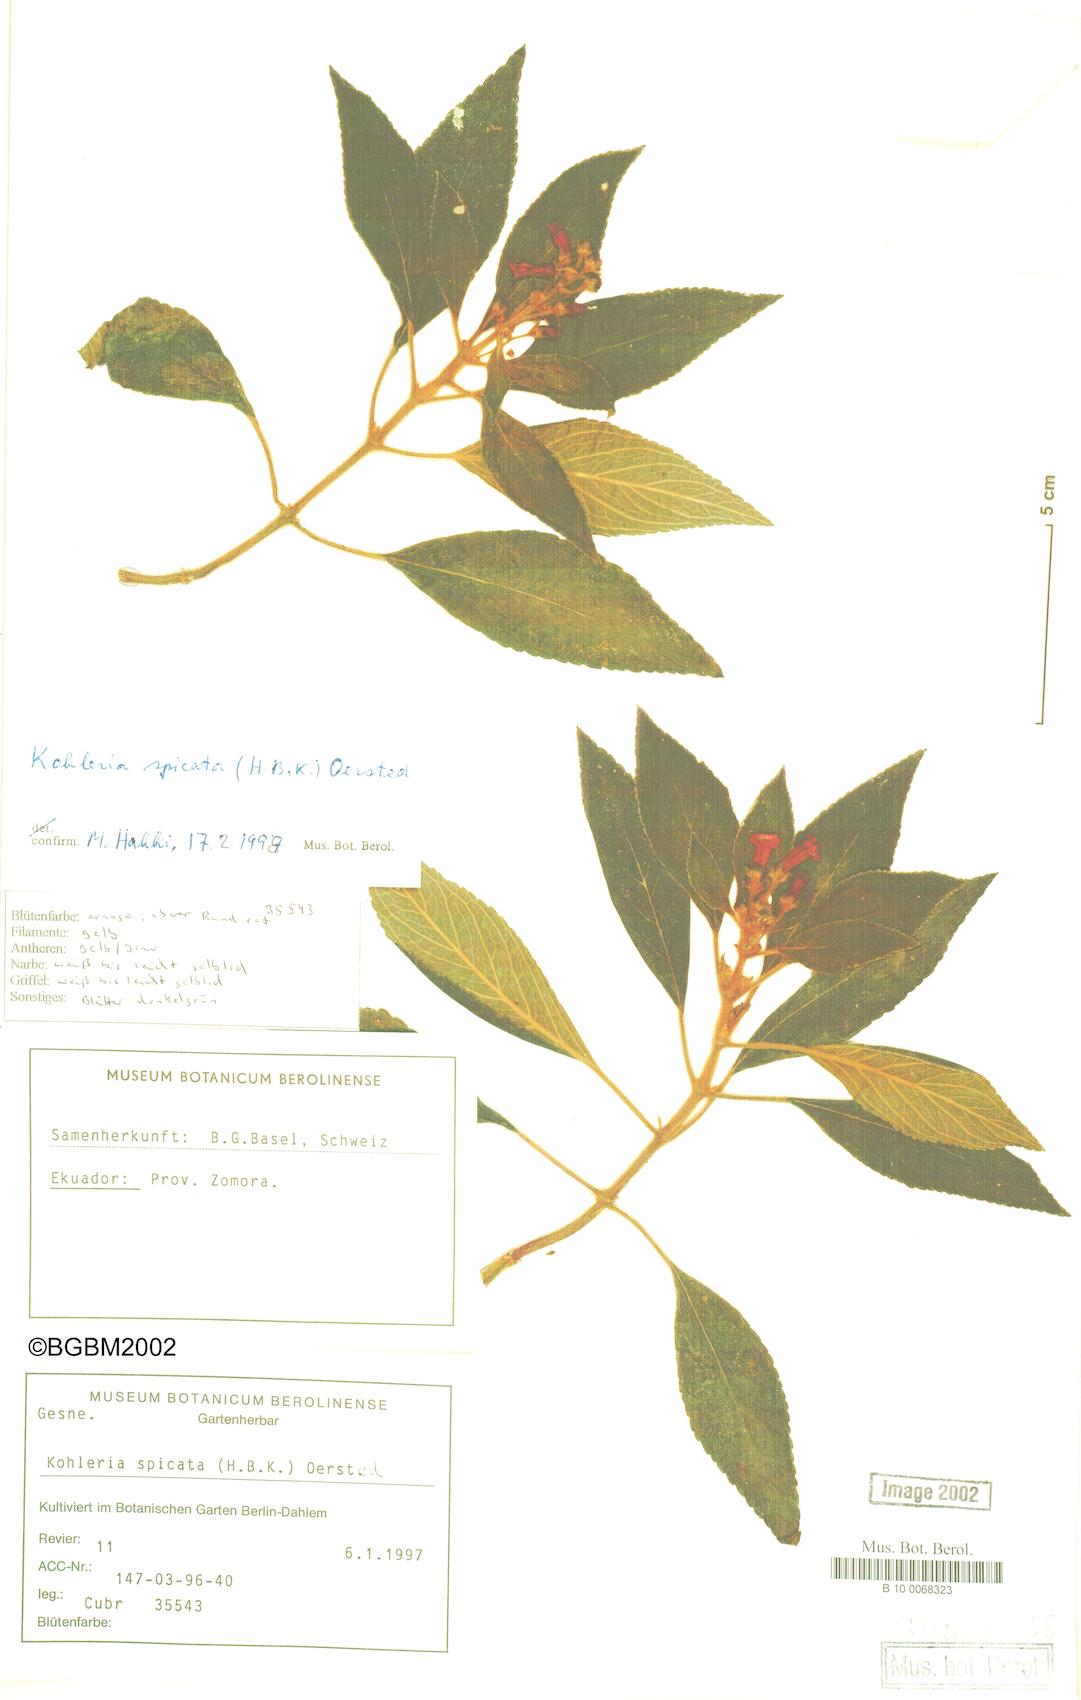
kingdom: Plantae
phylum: Tracheophyta
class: Magnoliopsida
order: Lamiales
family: Gesneriaceae
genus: Kohleria
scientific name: Kohleria spicata
